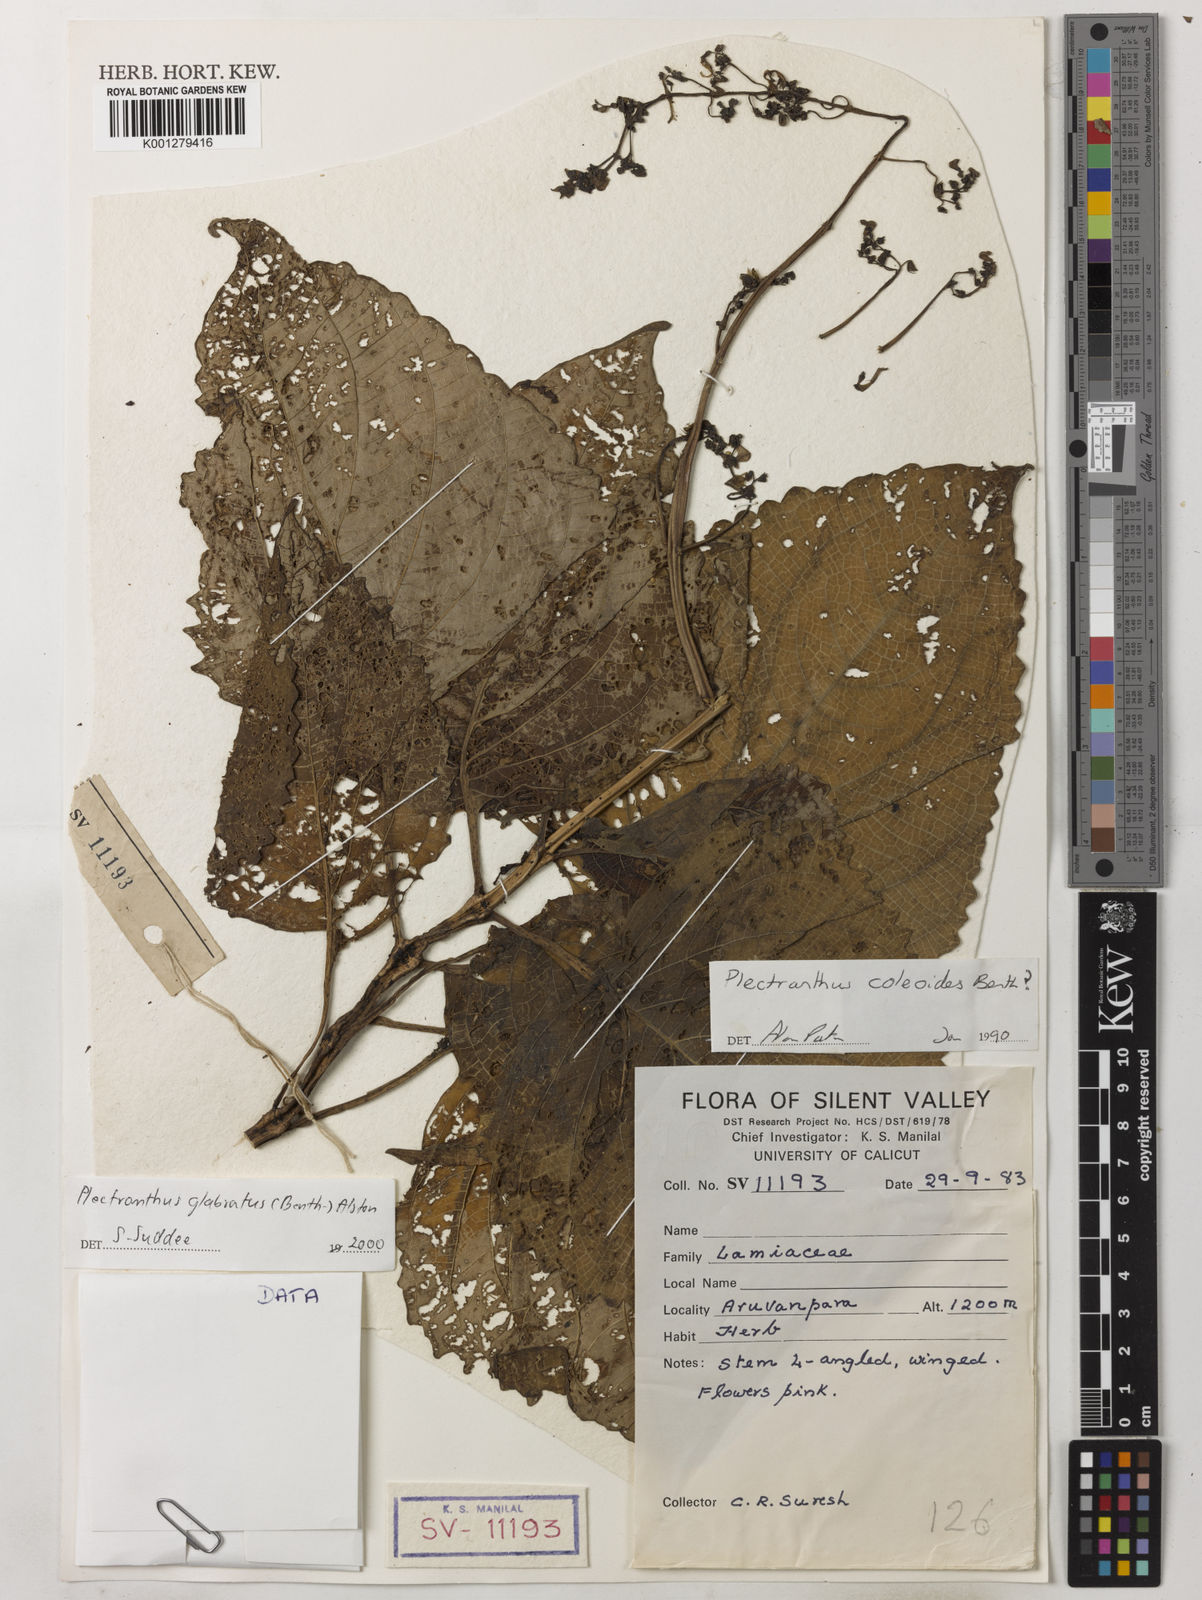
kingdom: Plantae
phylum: Tracheophyta
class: Magnoliopsida
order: Lamiales
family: Lamiaceae
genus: Coleus
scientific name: Coleus paniculatus
